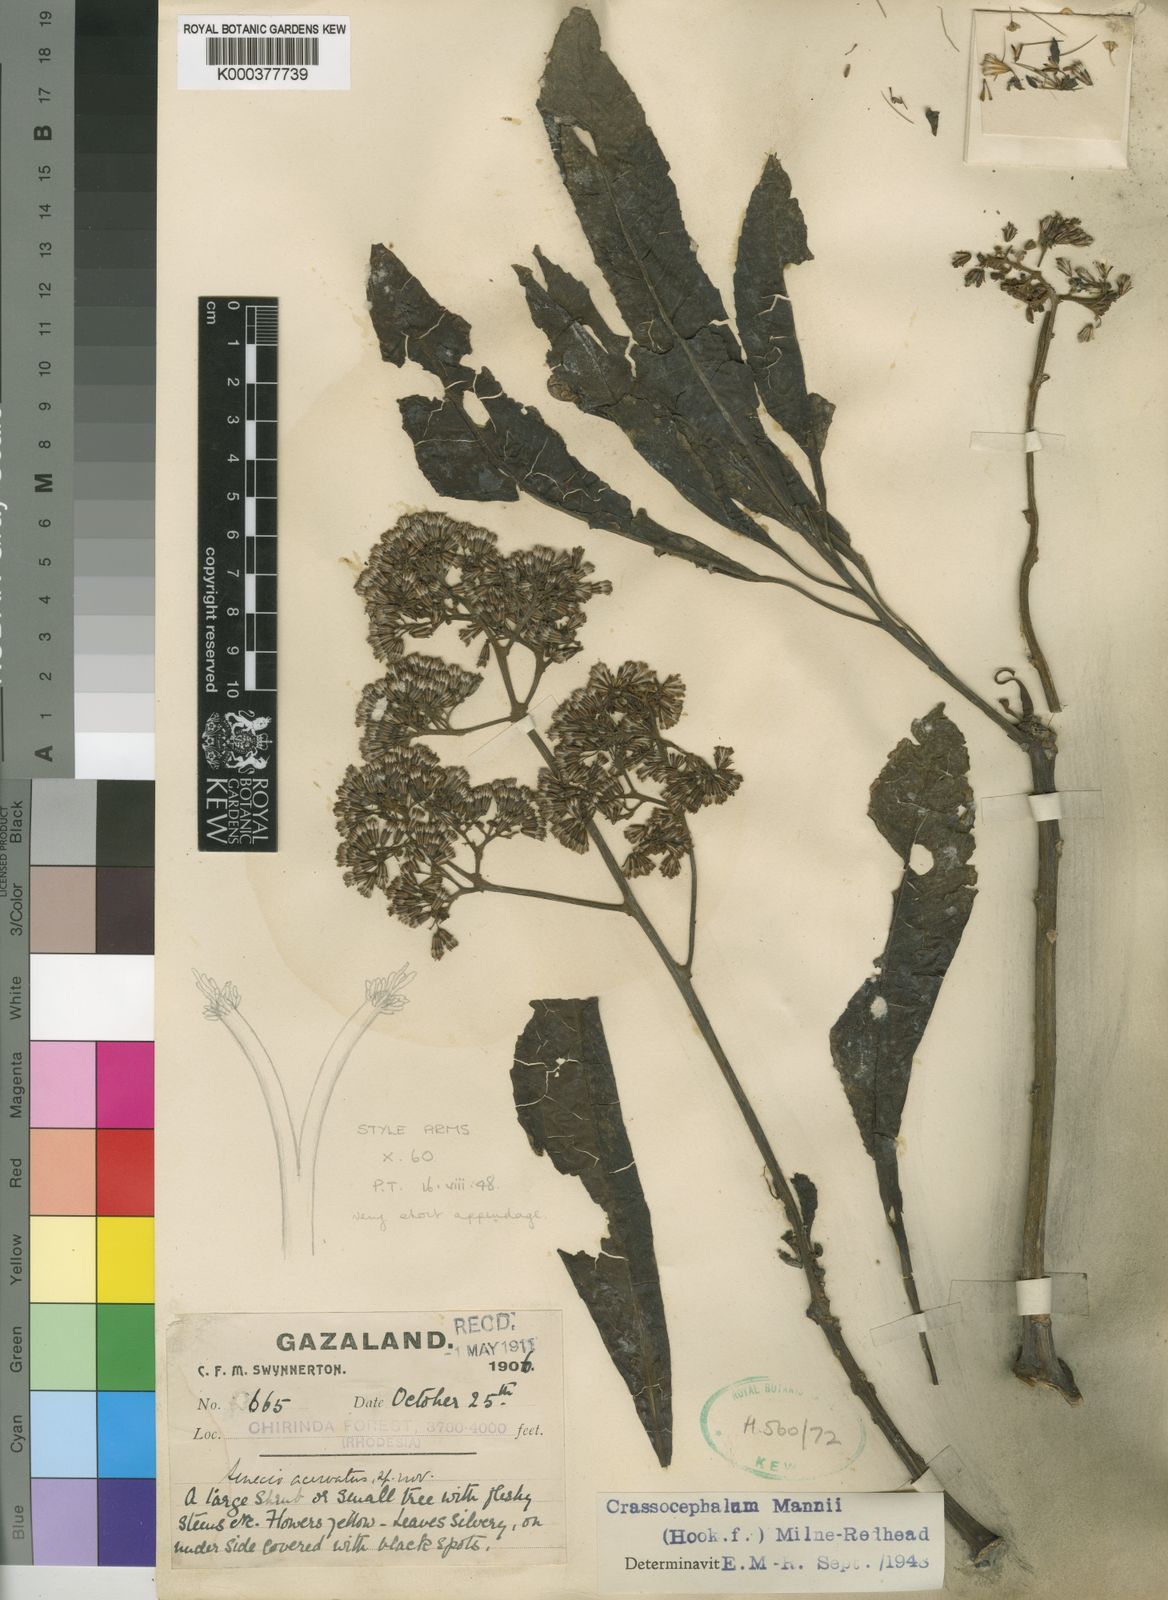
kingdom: Plantae
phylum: Tracheophyta
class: Magnoliopsida
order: Asterales
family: Asteraceae
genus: Solanecio
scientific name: Solanecio mannii
